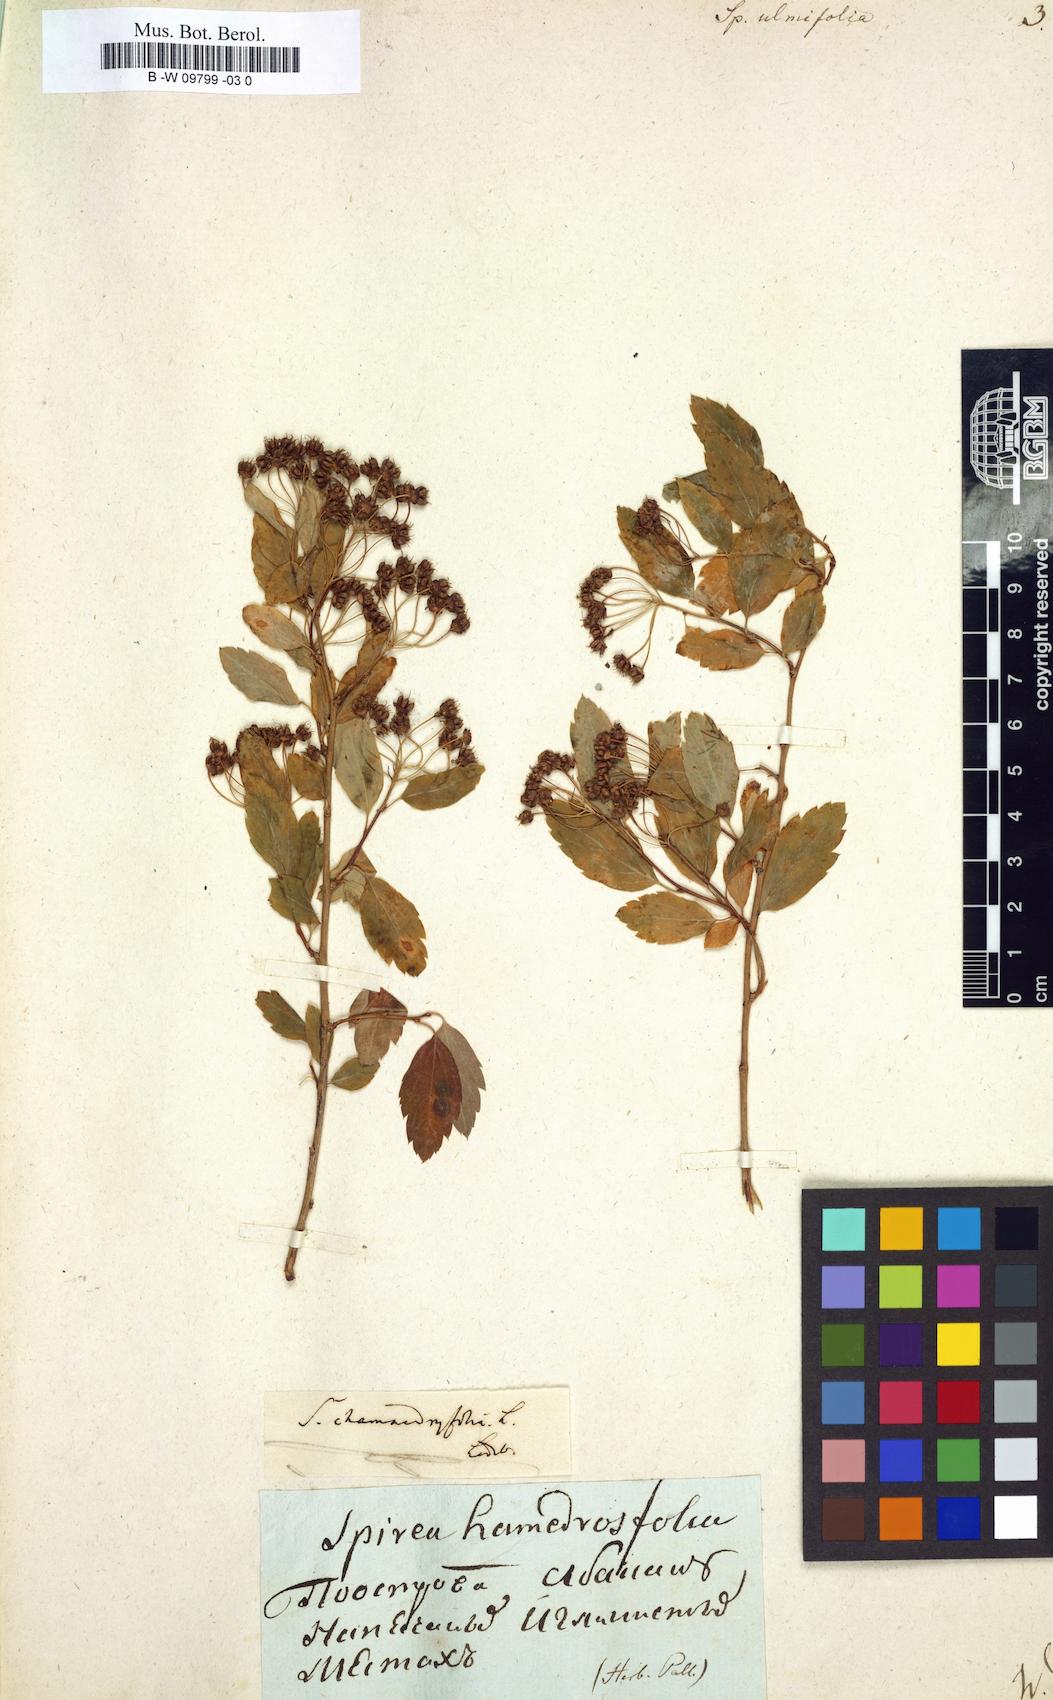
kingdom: Plantae
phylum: Tracheophyta
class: Magnoliopsida
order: Rosales
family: Rosaceae
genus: Spiraea
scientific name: Spiraea chamaedryfolia
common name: Elm-leaved spiraea
